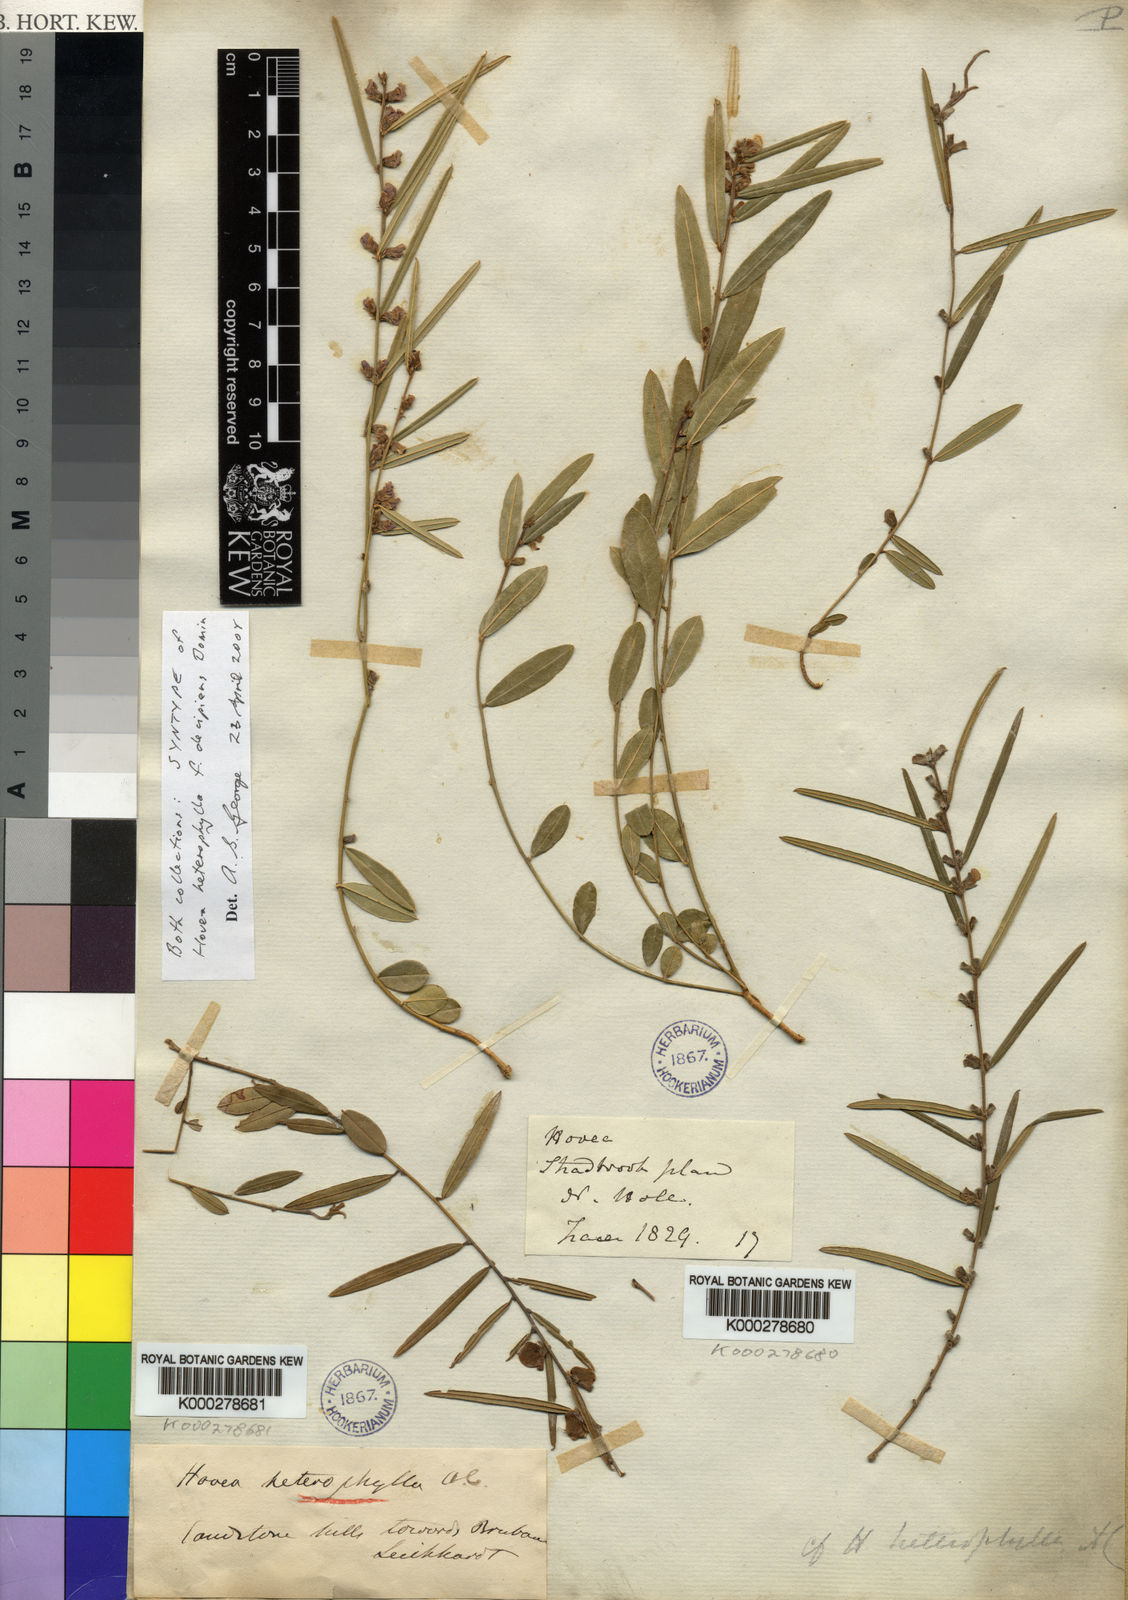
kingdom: Plantae
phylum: Tracheophyta
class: Magnoliopsida
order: Fabales
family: Fabaceae
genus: Hovea
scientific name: Hovea heterophylla
